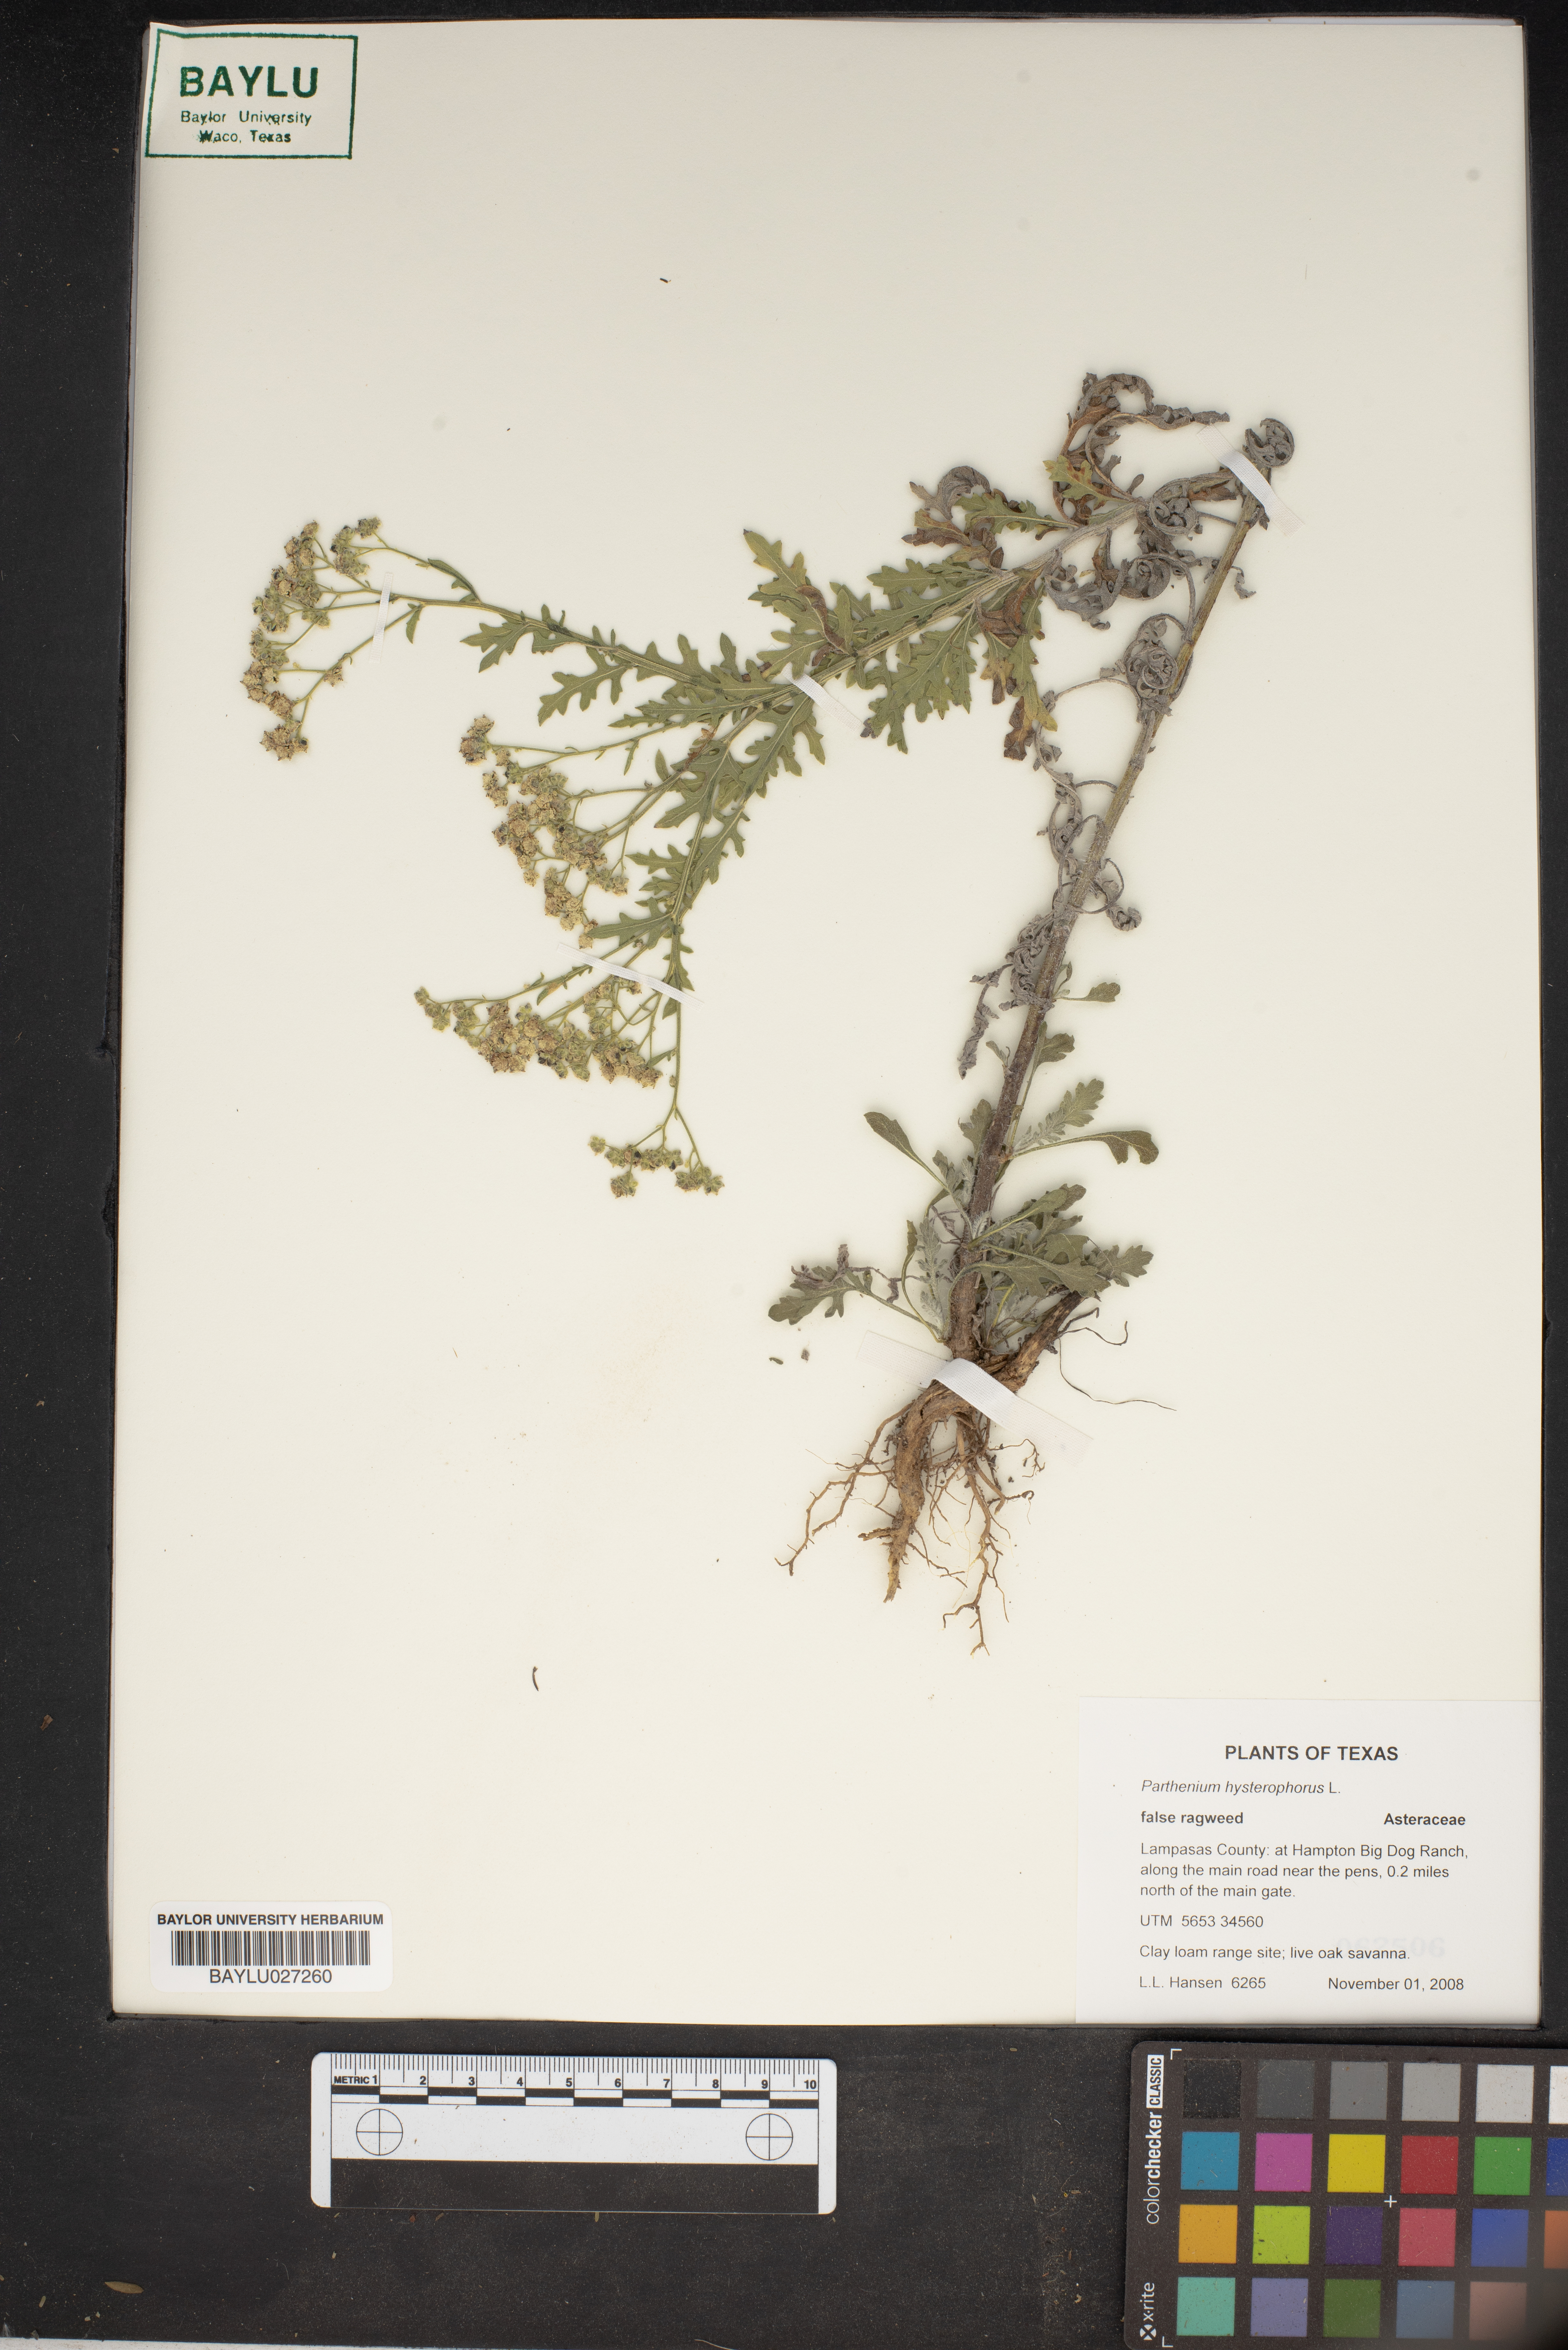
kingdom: Plantae
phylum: Tracheophyta
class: Magnoliopsida
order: Asterales
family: Asteraceae
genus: Parthenium
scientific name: Parthenium hysterophorus
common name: Santa maria feverfew
